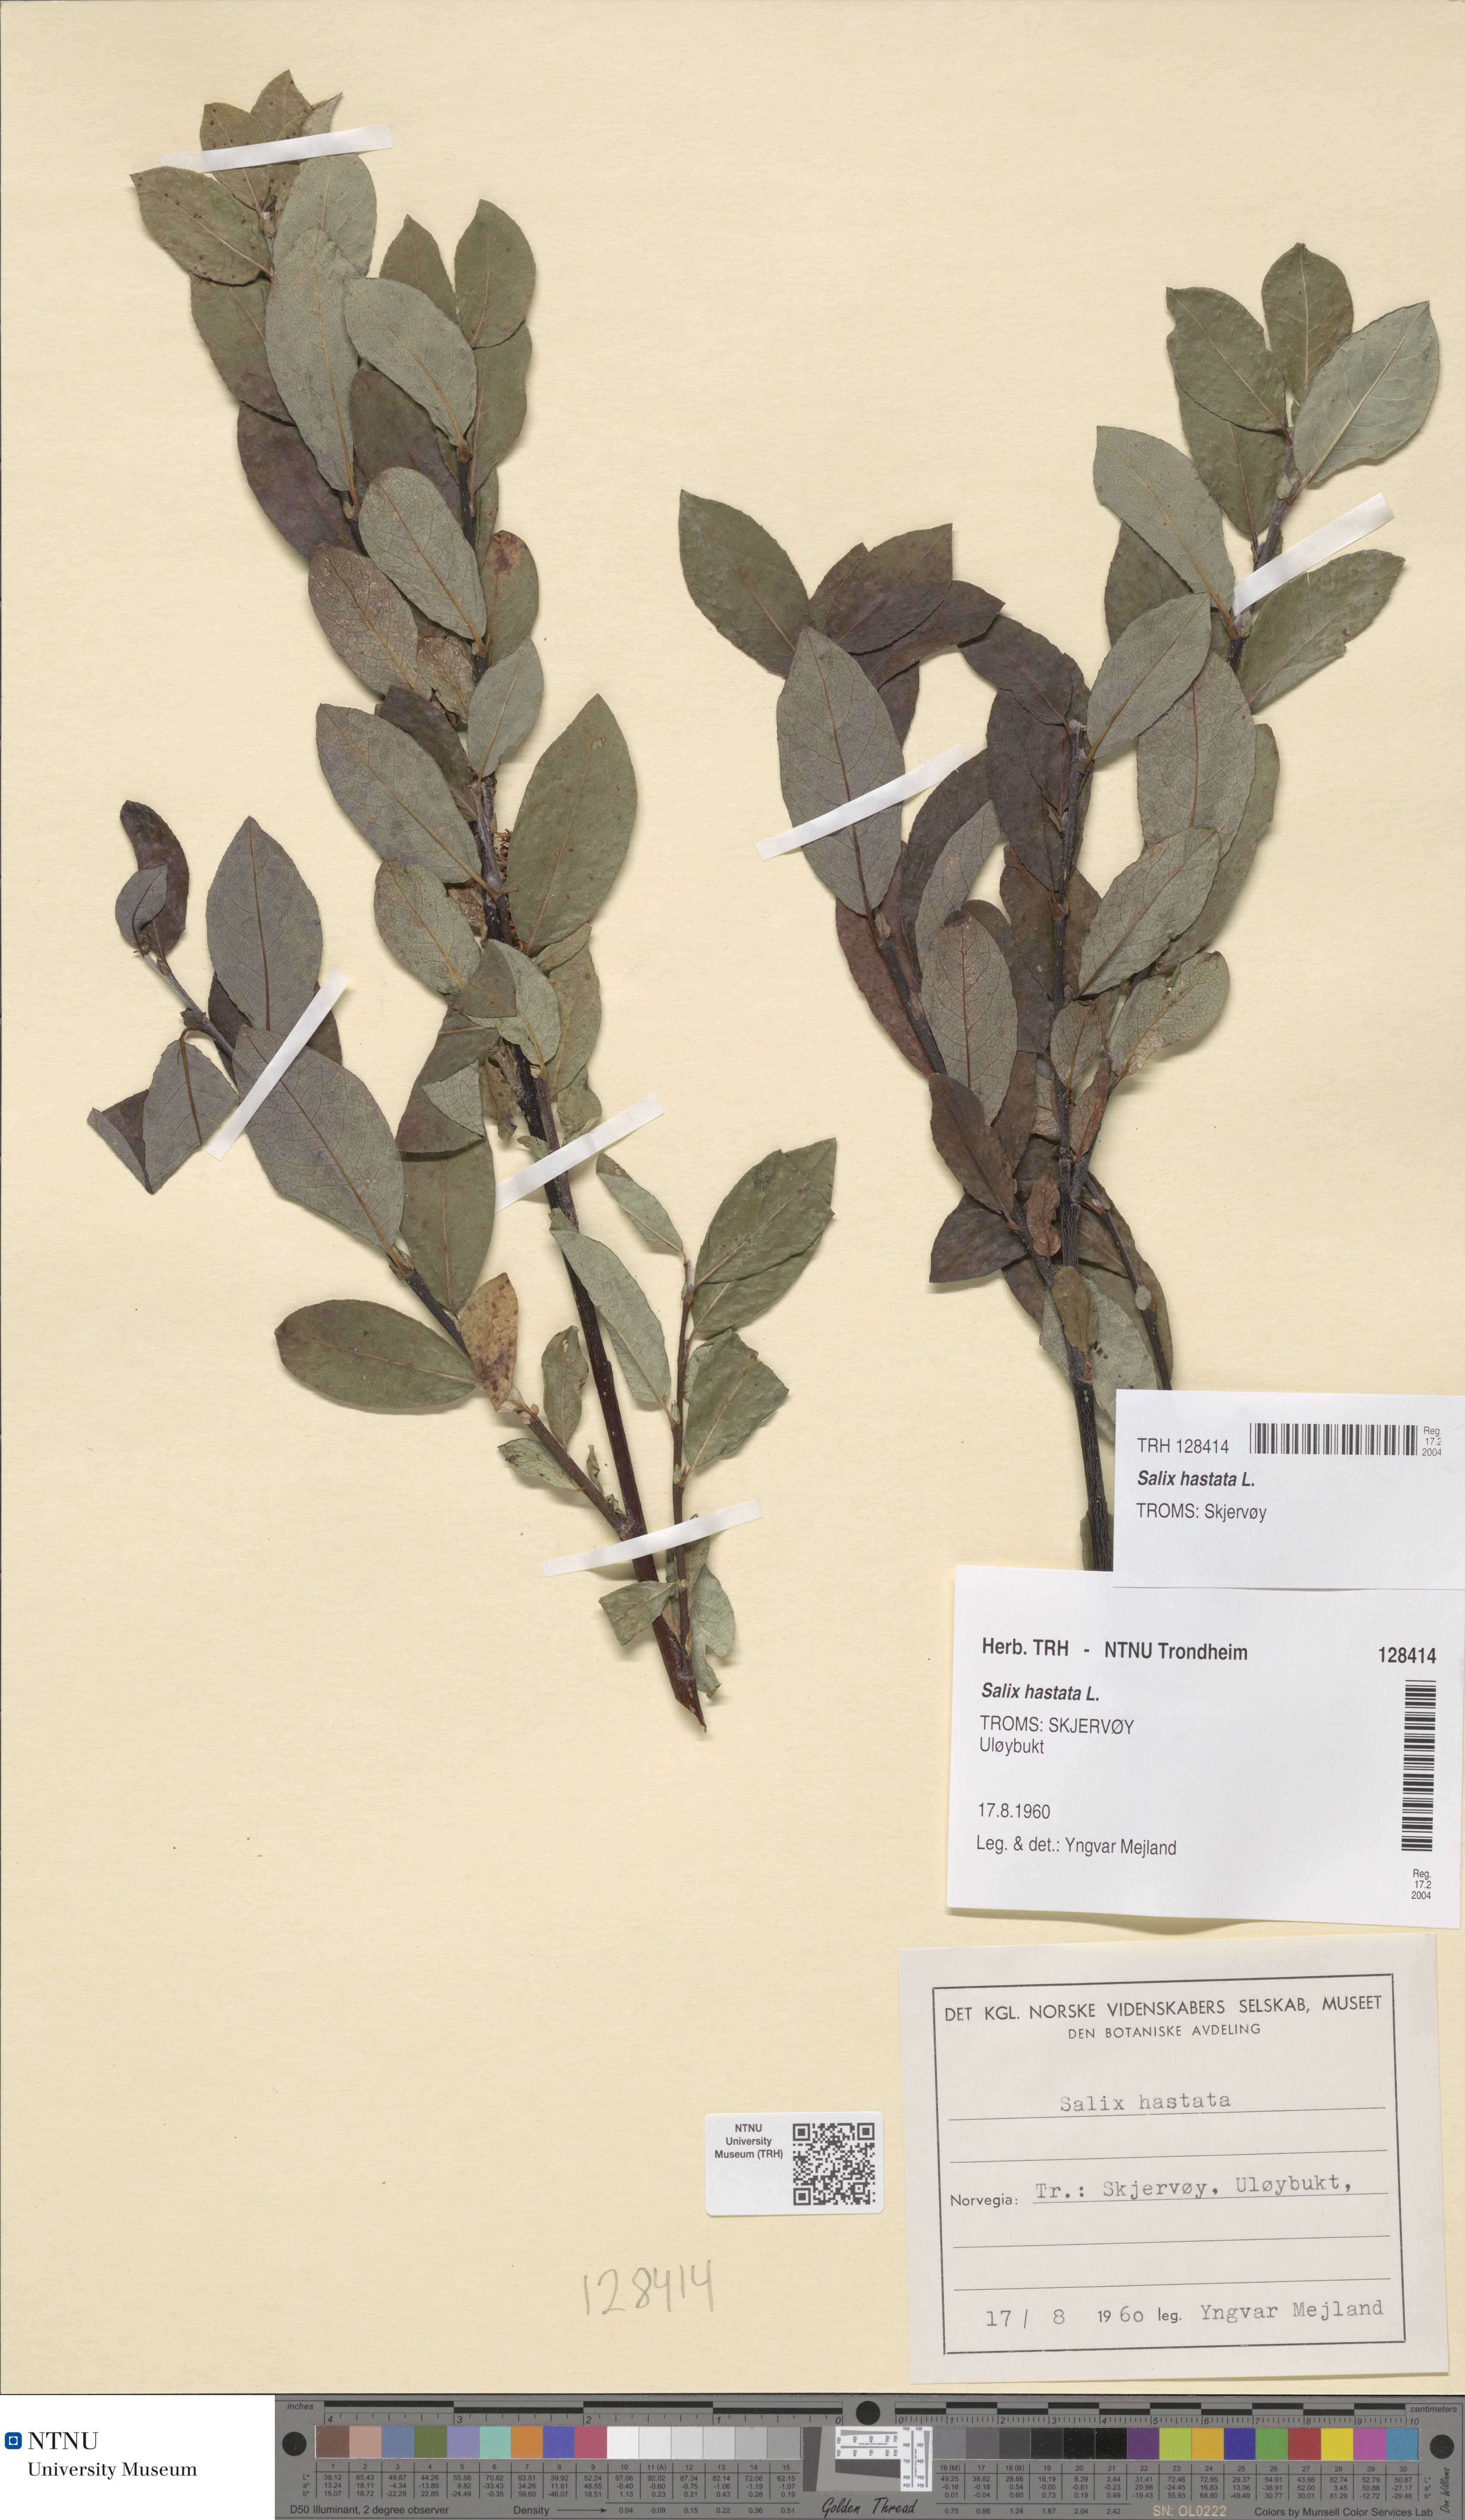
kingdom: Plantae
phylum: Tracheophyta
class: Magnoliopsida
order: Malpighiales
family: Salicaceae
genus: Salix
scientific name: Salix hastata
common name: Halberd willow
